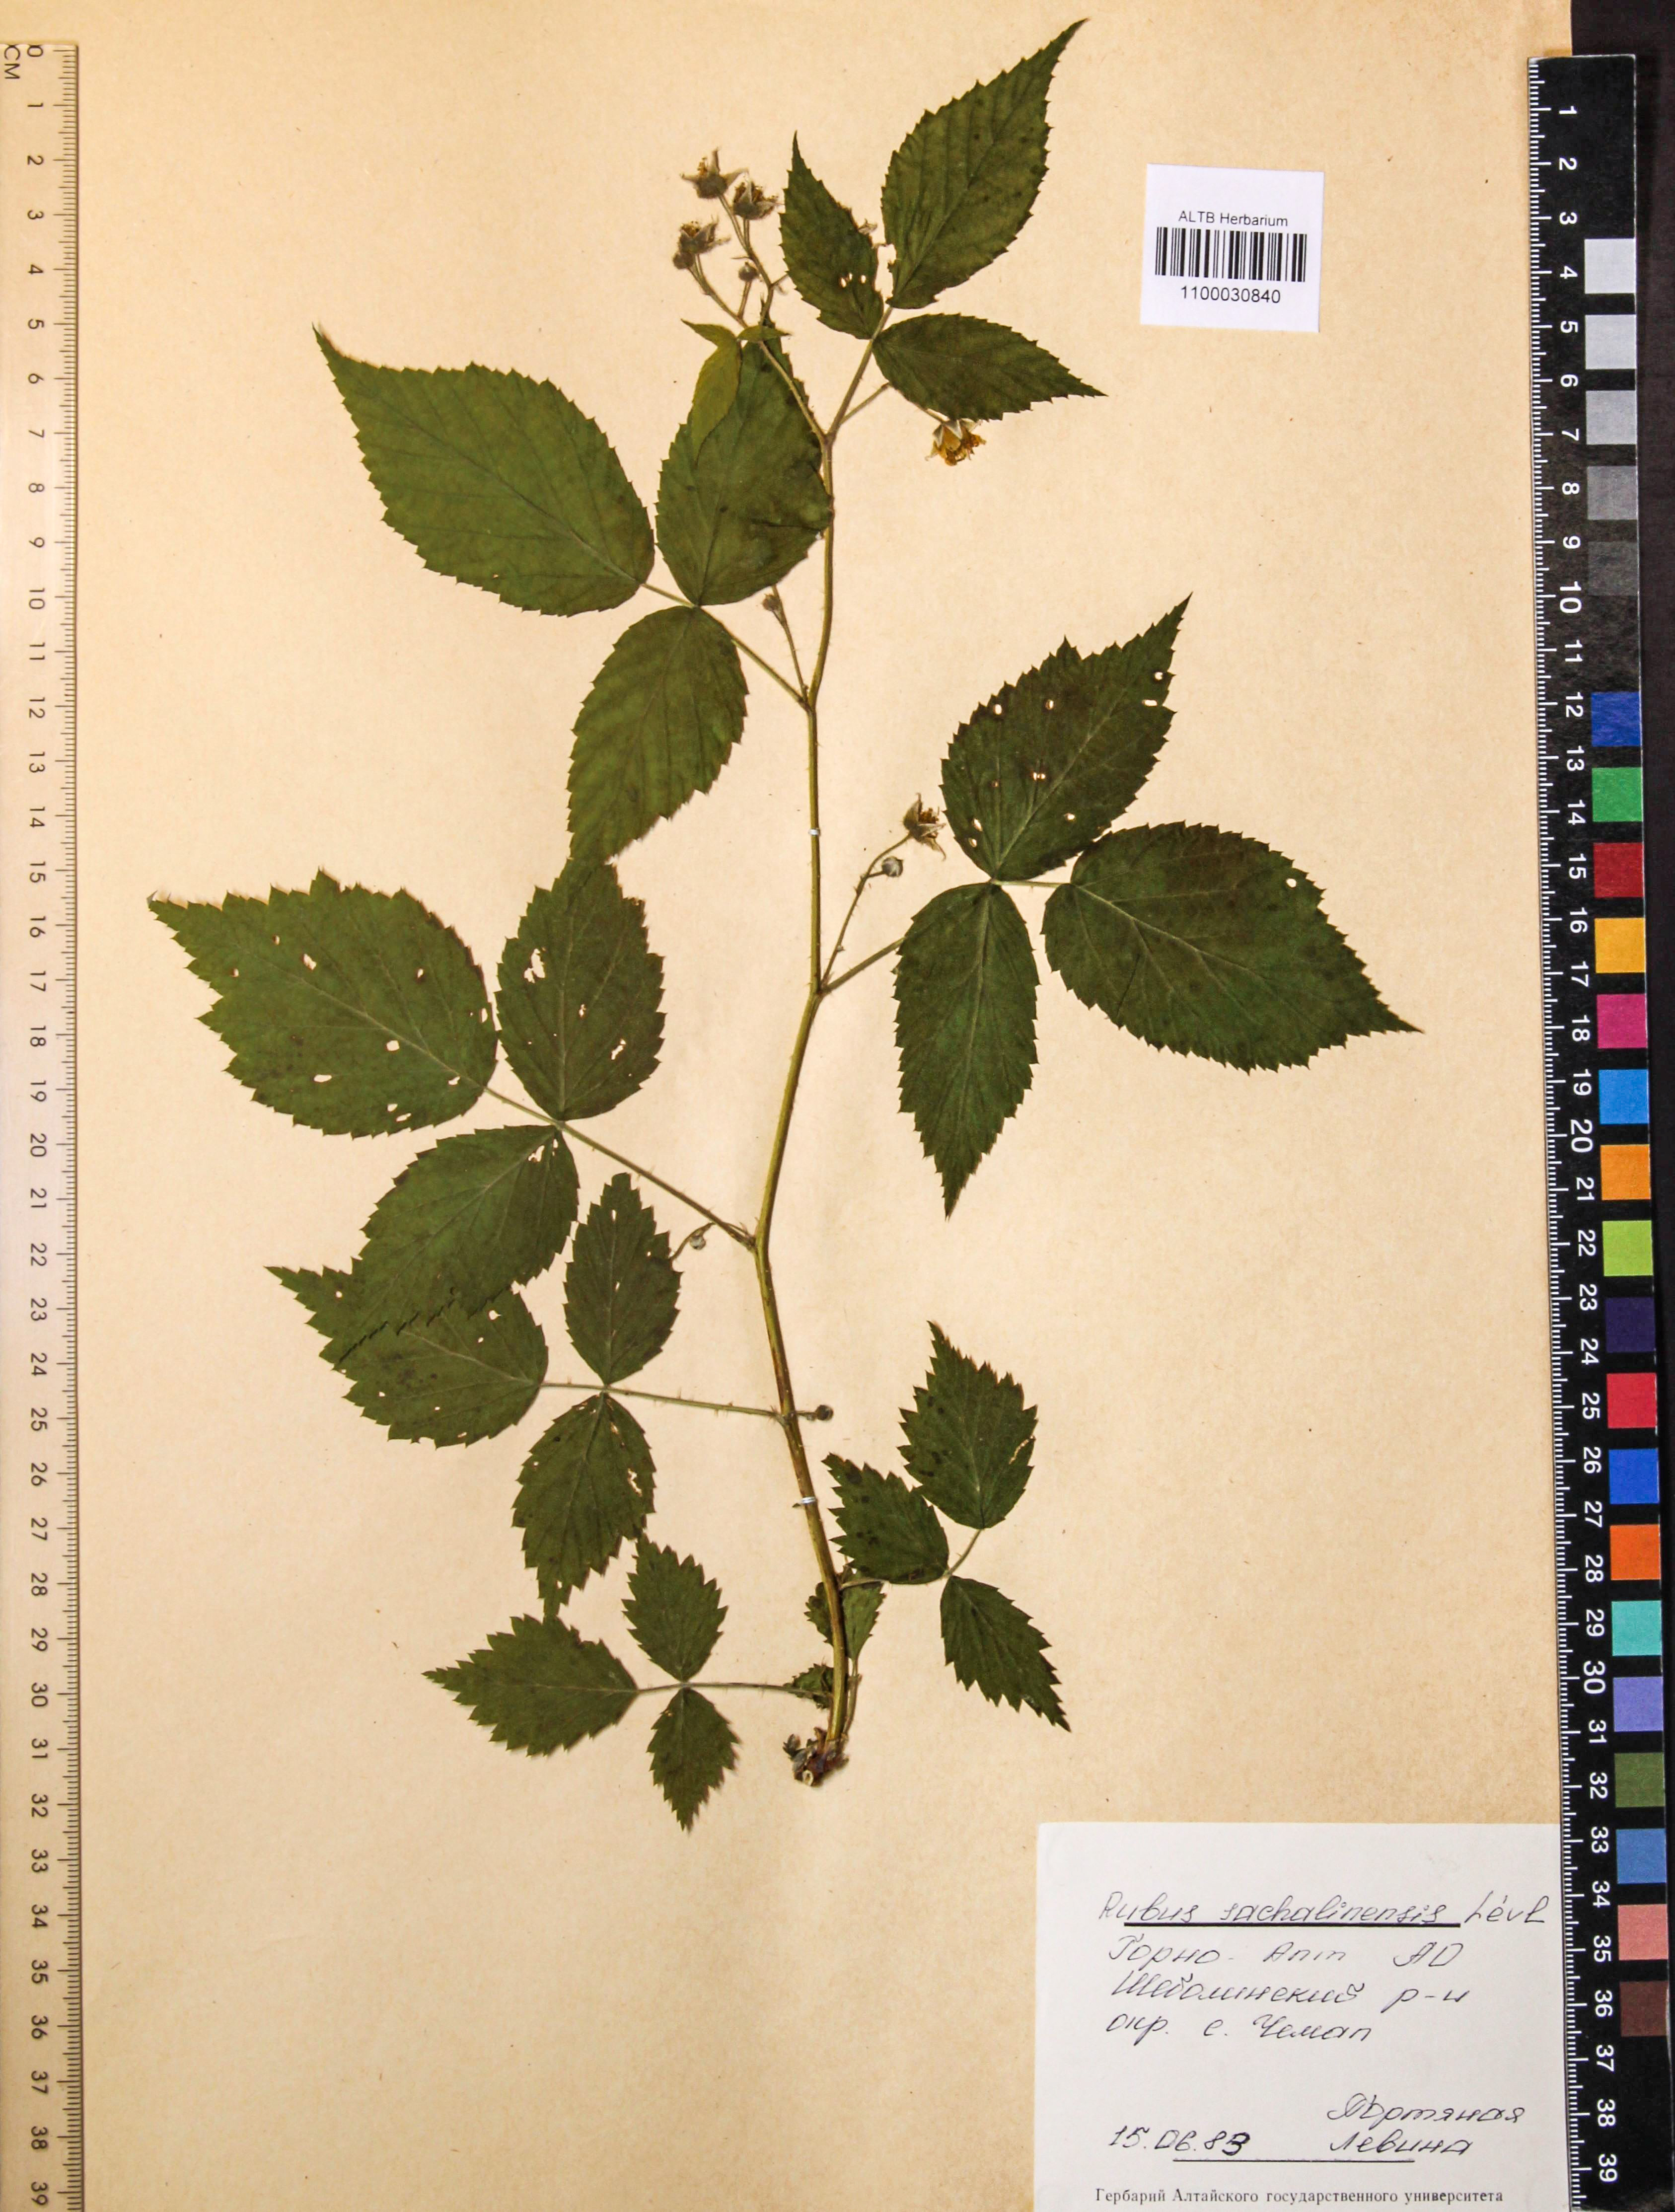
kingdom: Plantae
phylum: Tracheophyta
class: Magnoliopsida
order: Rosales
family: Rosaceae
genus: Rubus
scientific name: Rubus sachalinensis
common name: Red raspberry
